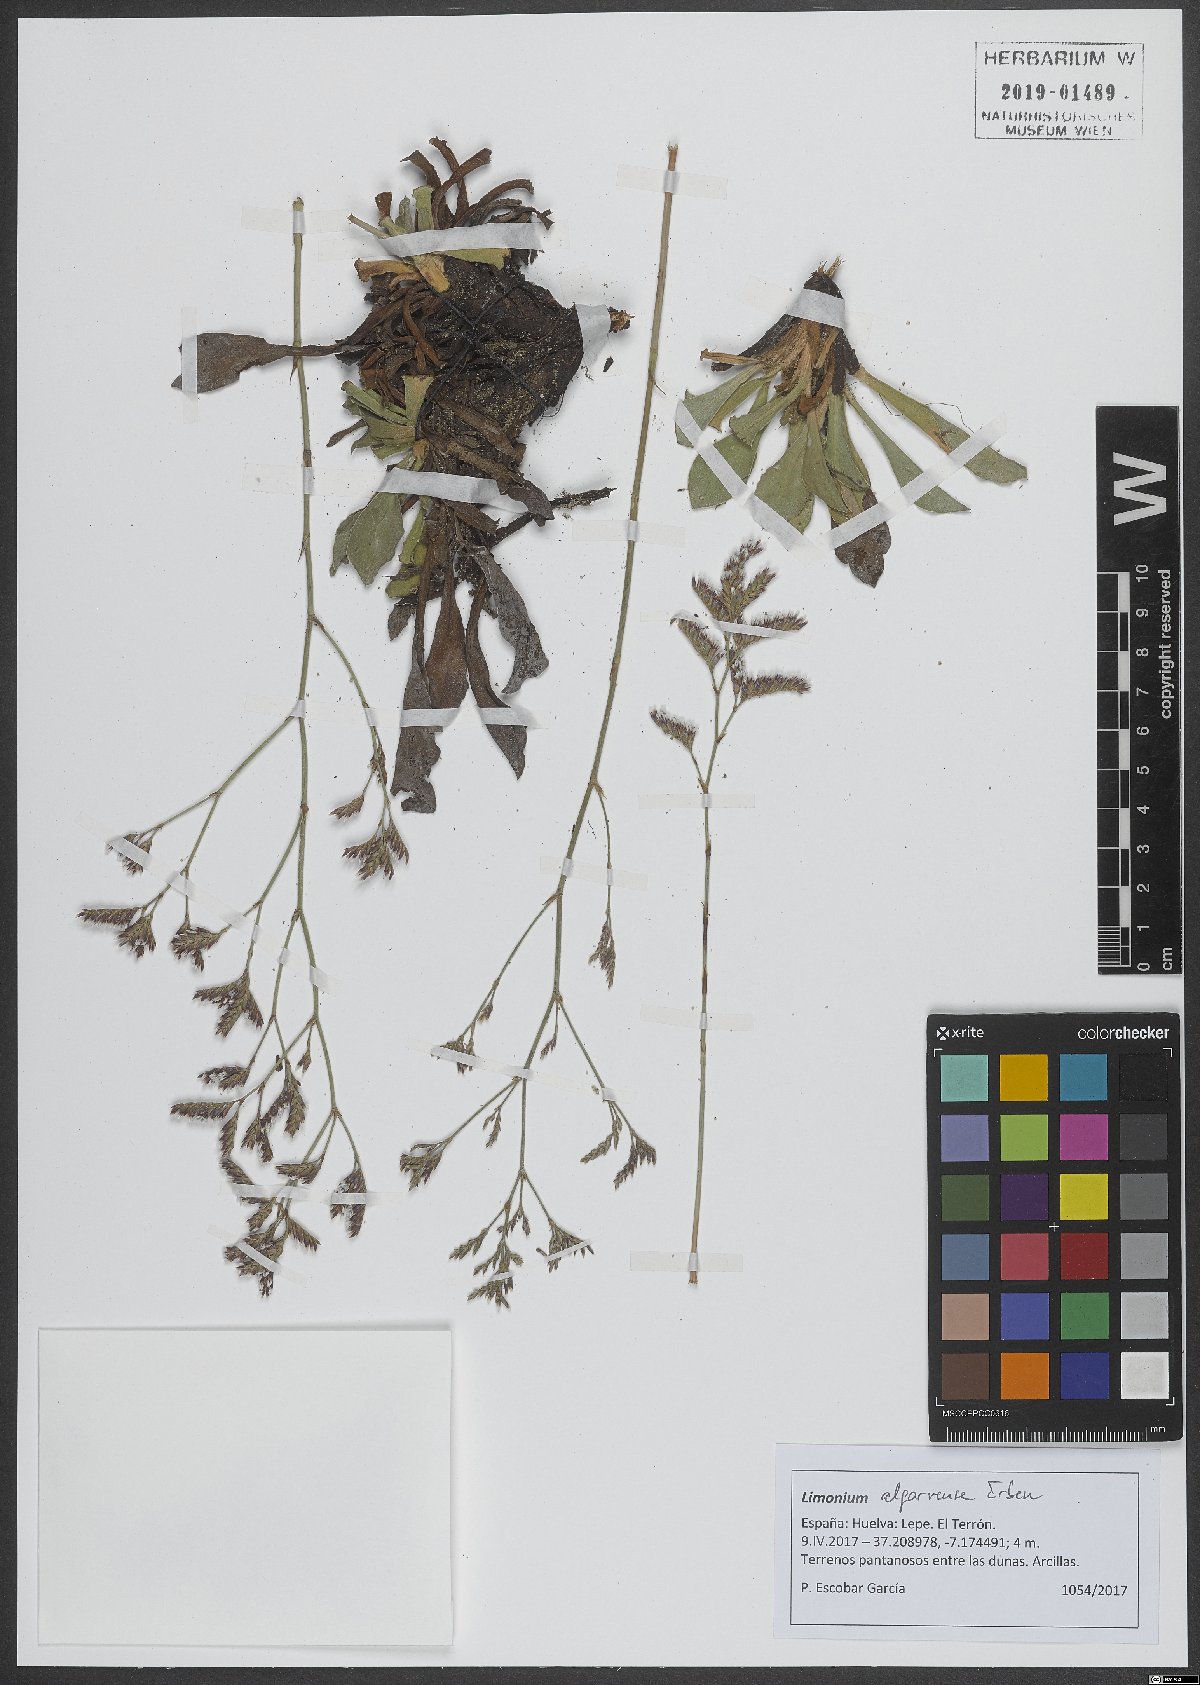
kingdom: Plantae
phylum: Tracheophyta
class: Magnoliopsida
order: Caryophyllales
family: Plumbaginaceae
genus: Limonium
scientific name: Limonium algarvense
